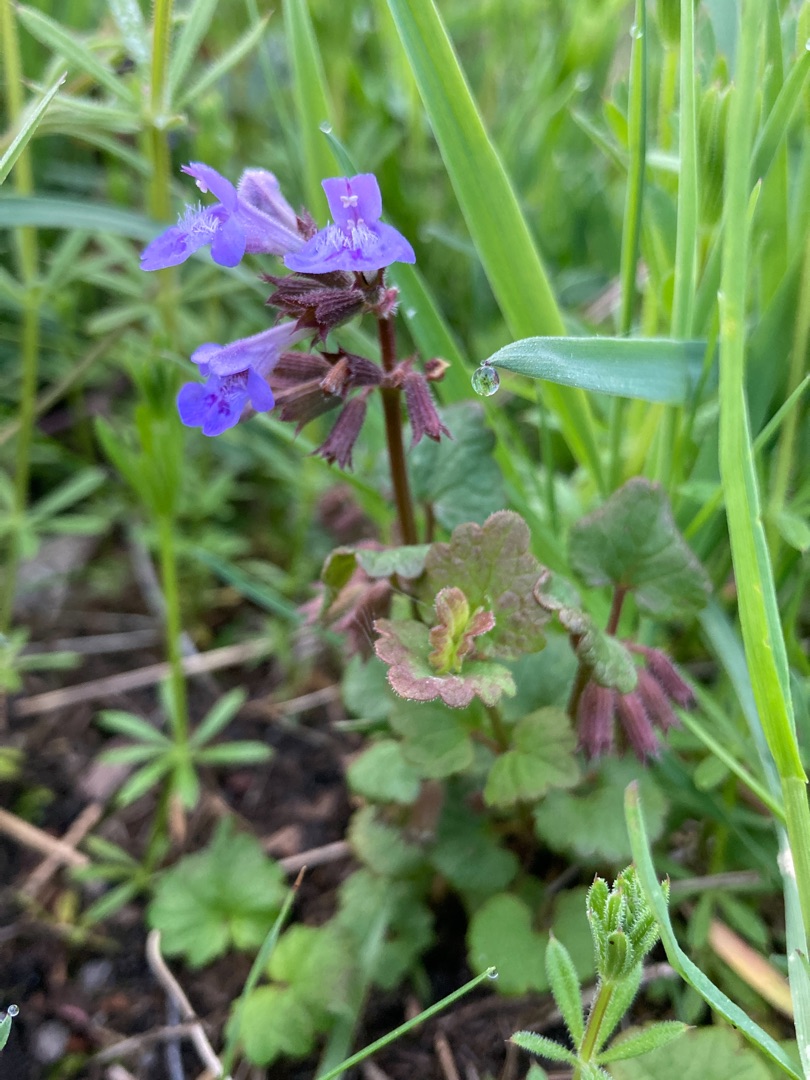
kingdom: Plantae
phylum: Tracheophyta
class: Magnoliopsida
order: Lamiales
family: Lamiaceae
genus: Glechoma
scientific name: Glechoma hederacea
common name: Korsknap
